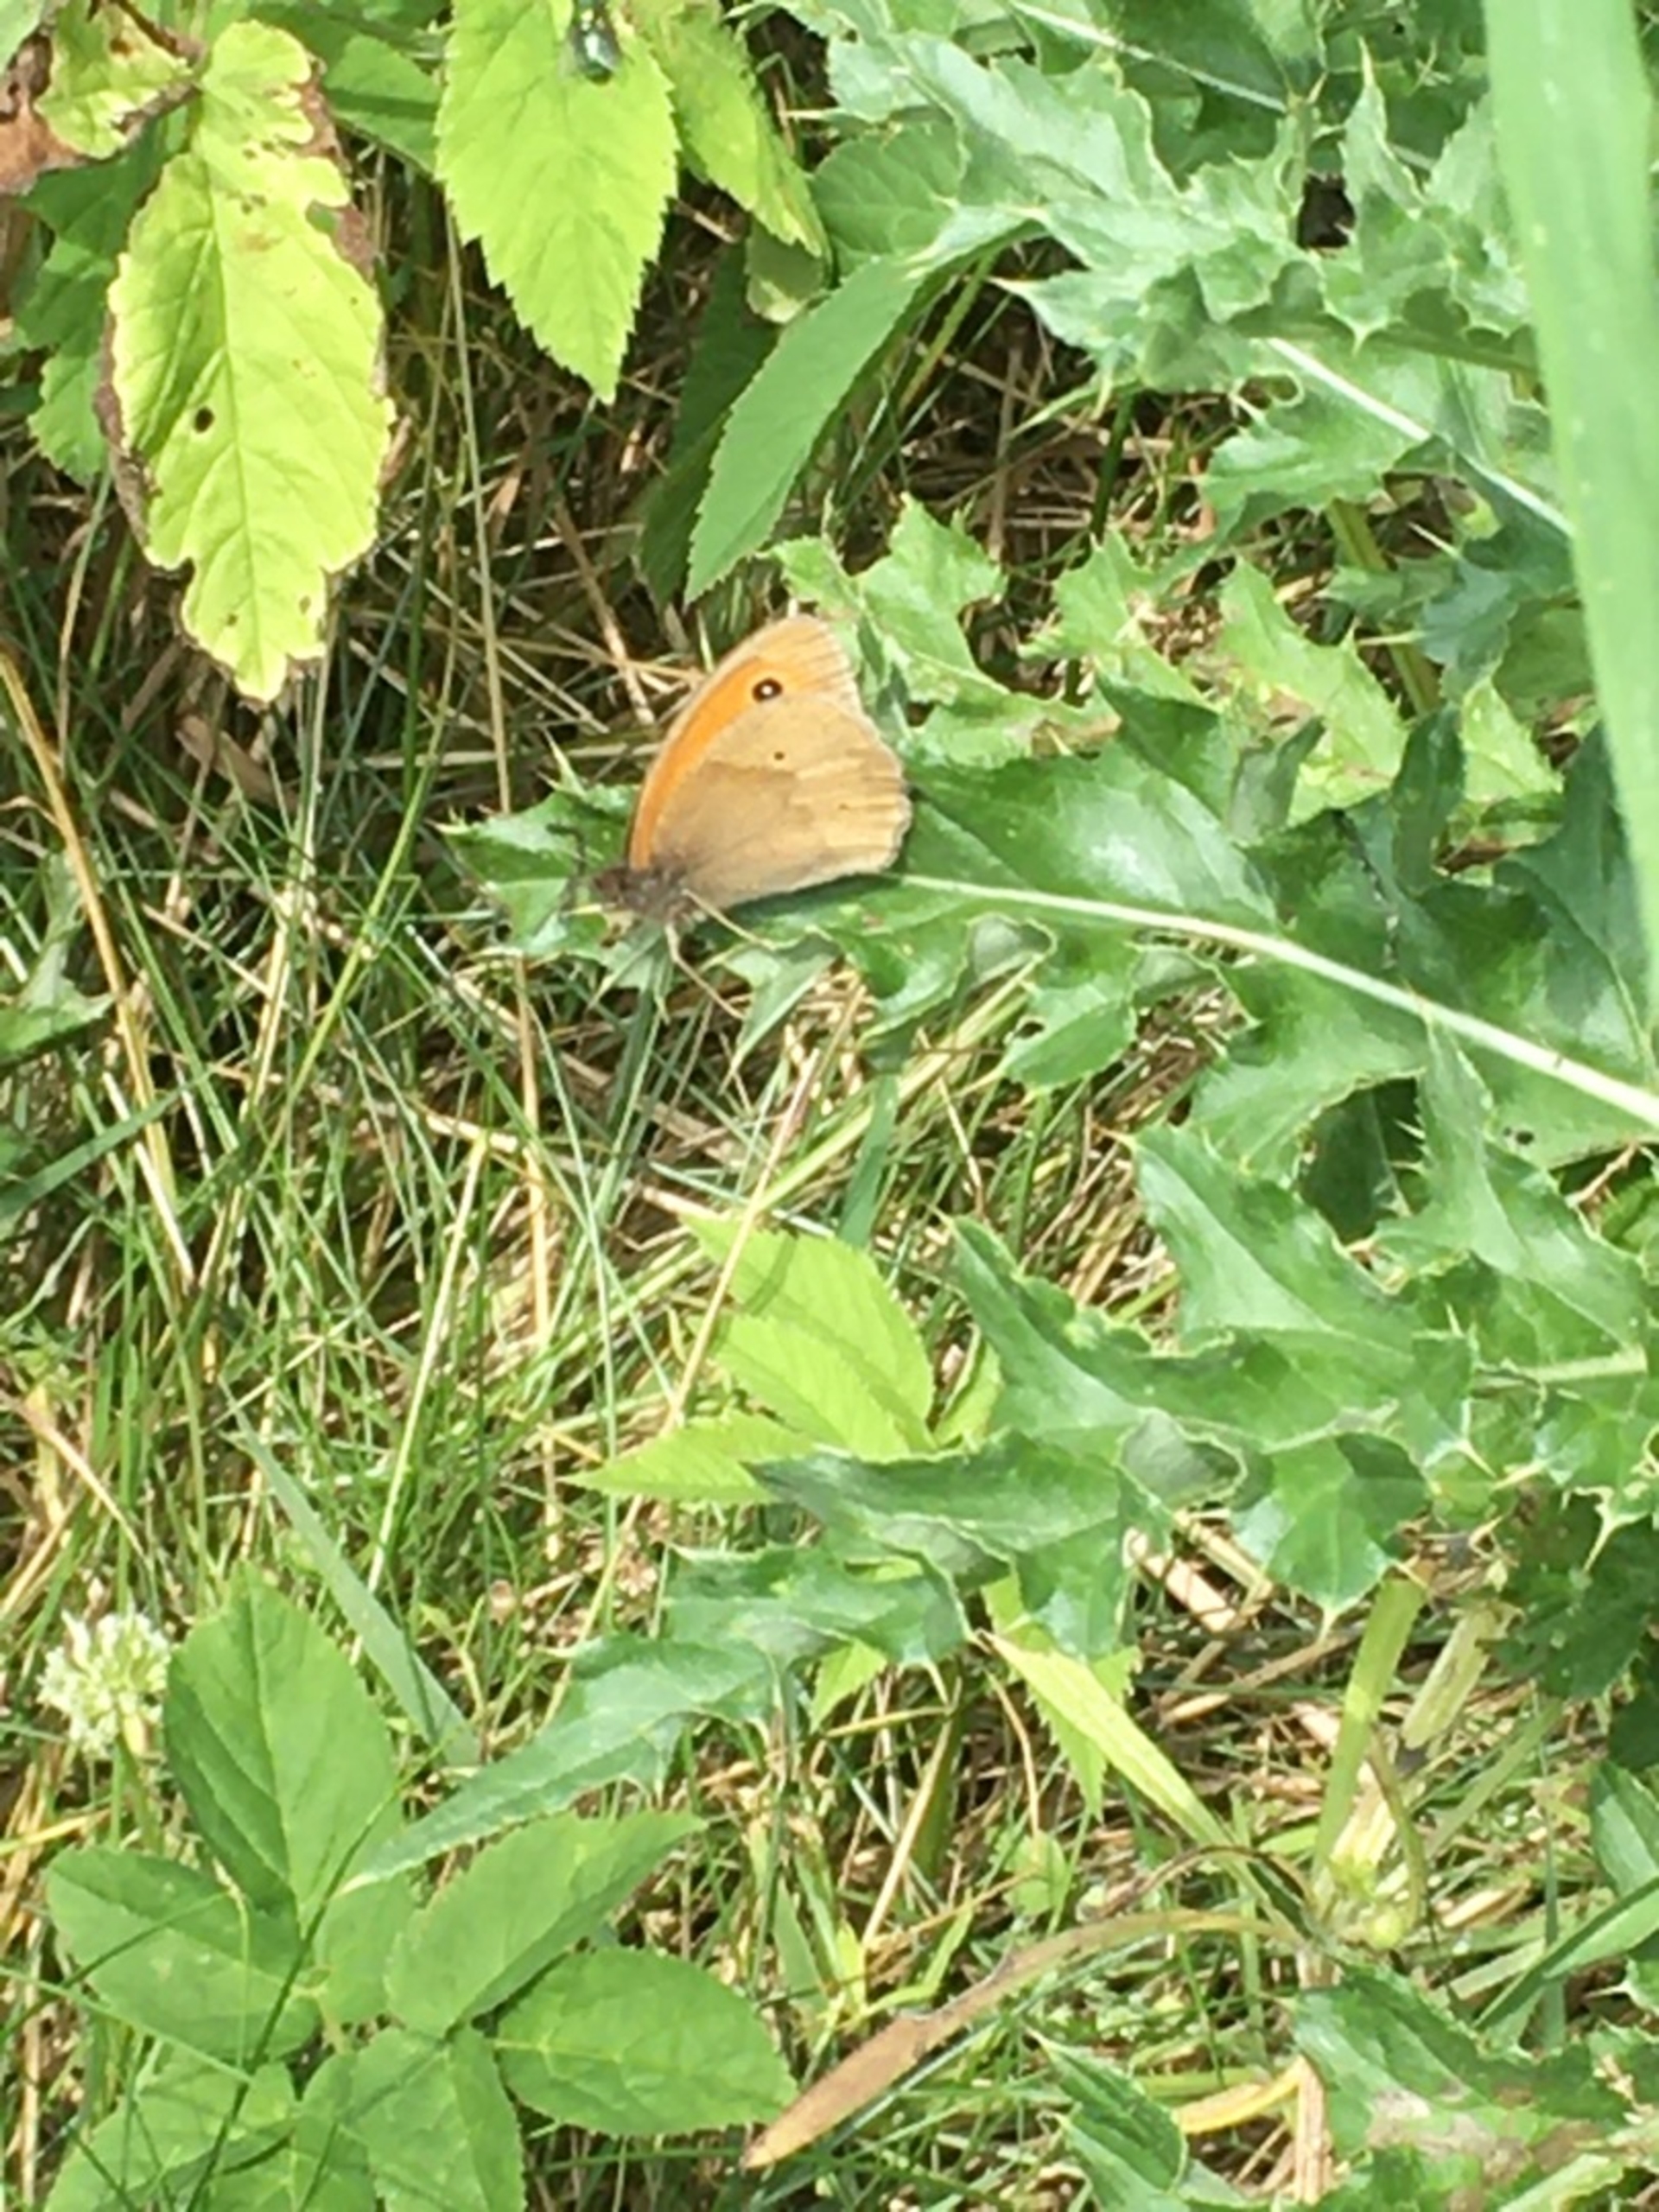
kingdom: Animalia
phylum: Arthropoda
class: Insecta
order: Lepidoptera
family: Nymphalidae
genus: Maniola
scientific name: Maniola jurtina
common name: Græsrandøje
